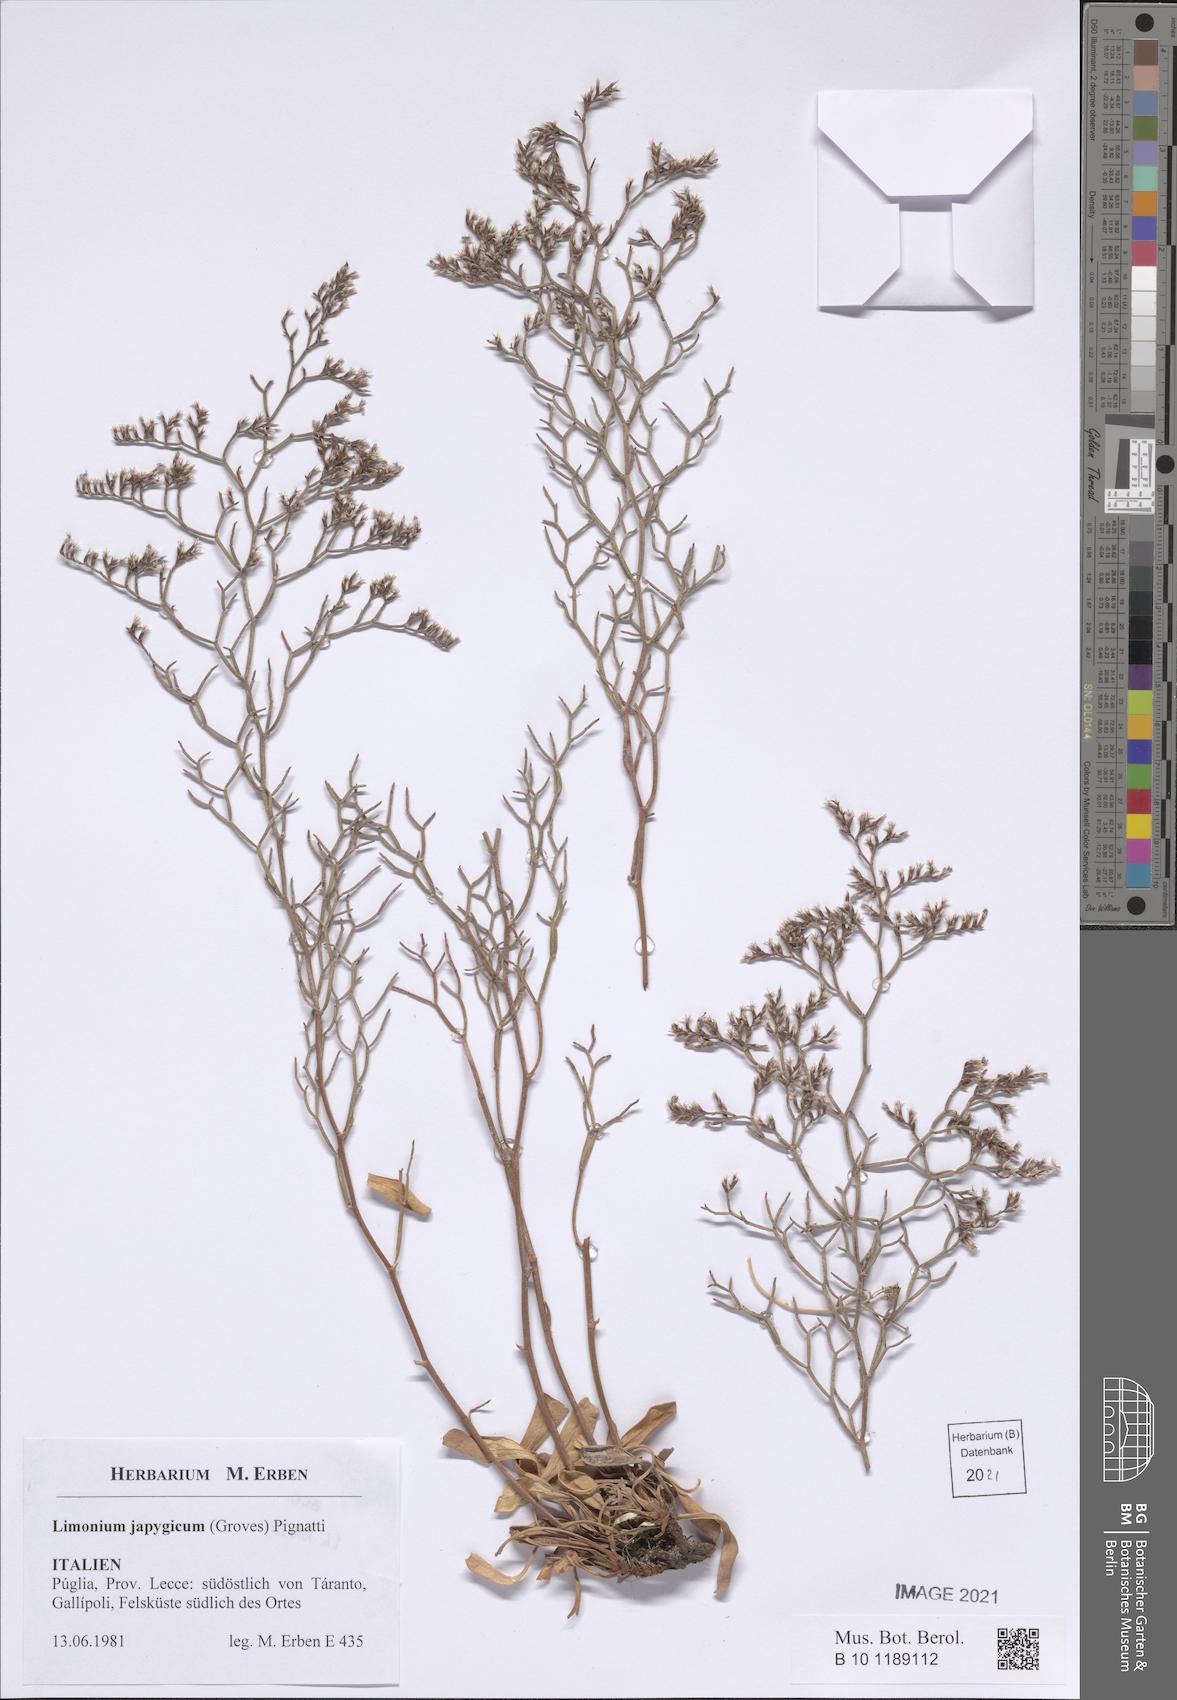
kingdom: Plantae
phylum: Tracheophyta
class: Magnoliopsida
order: Caryophyllales
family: Plumbaginaceae
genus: Limonium
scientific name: Limonium japygicum
